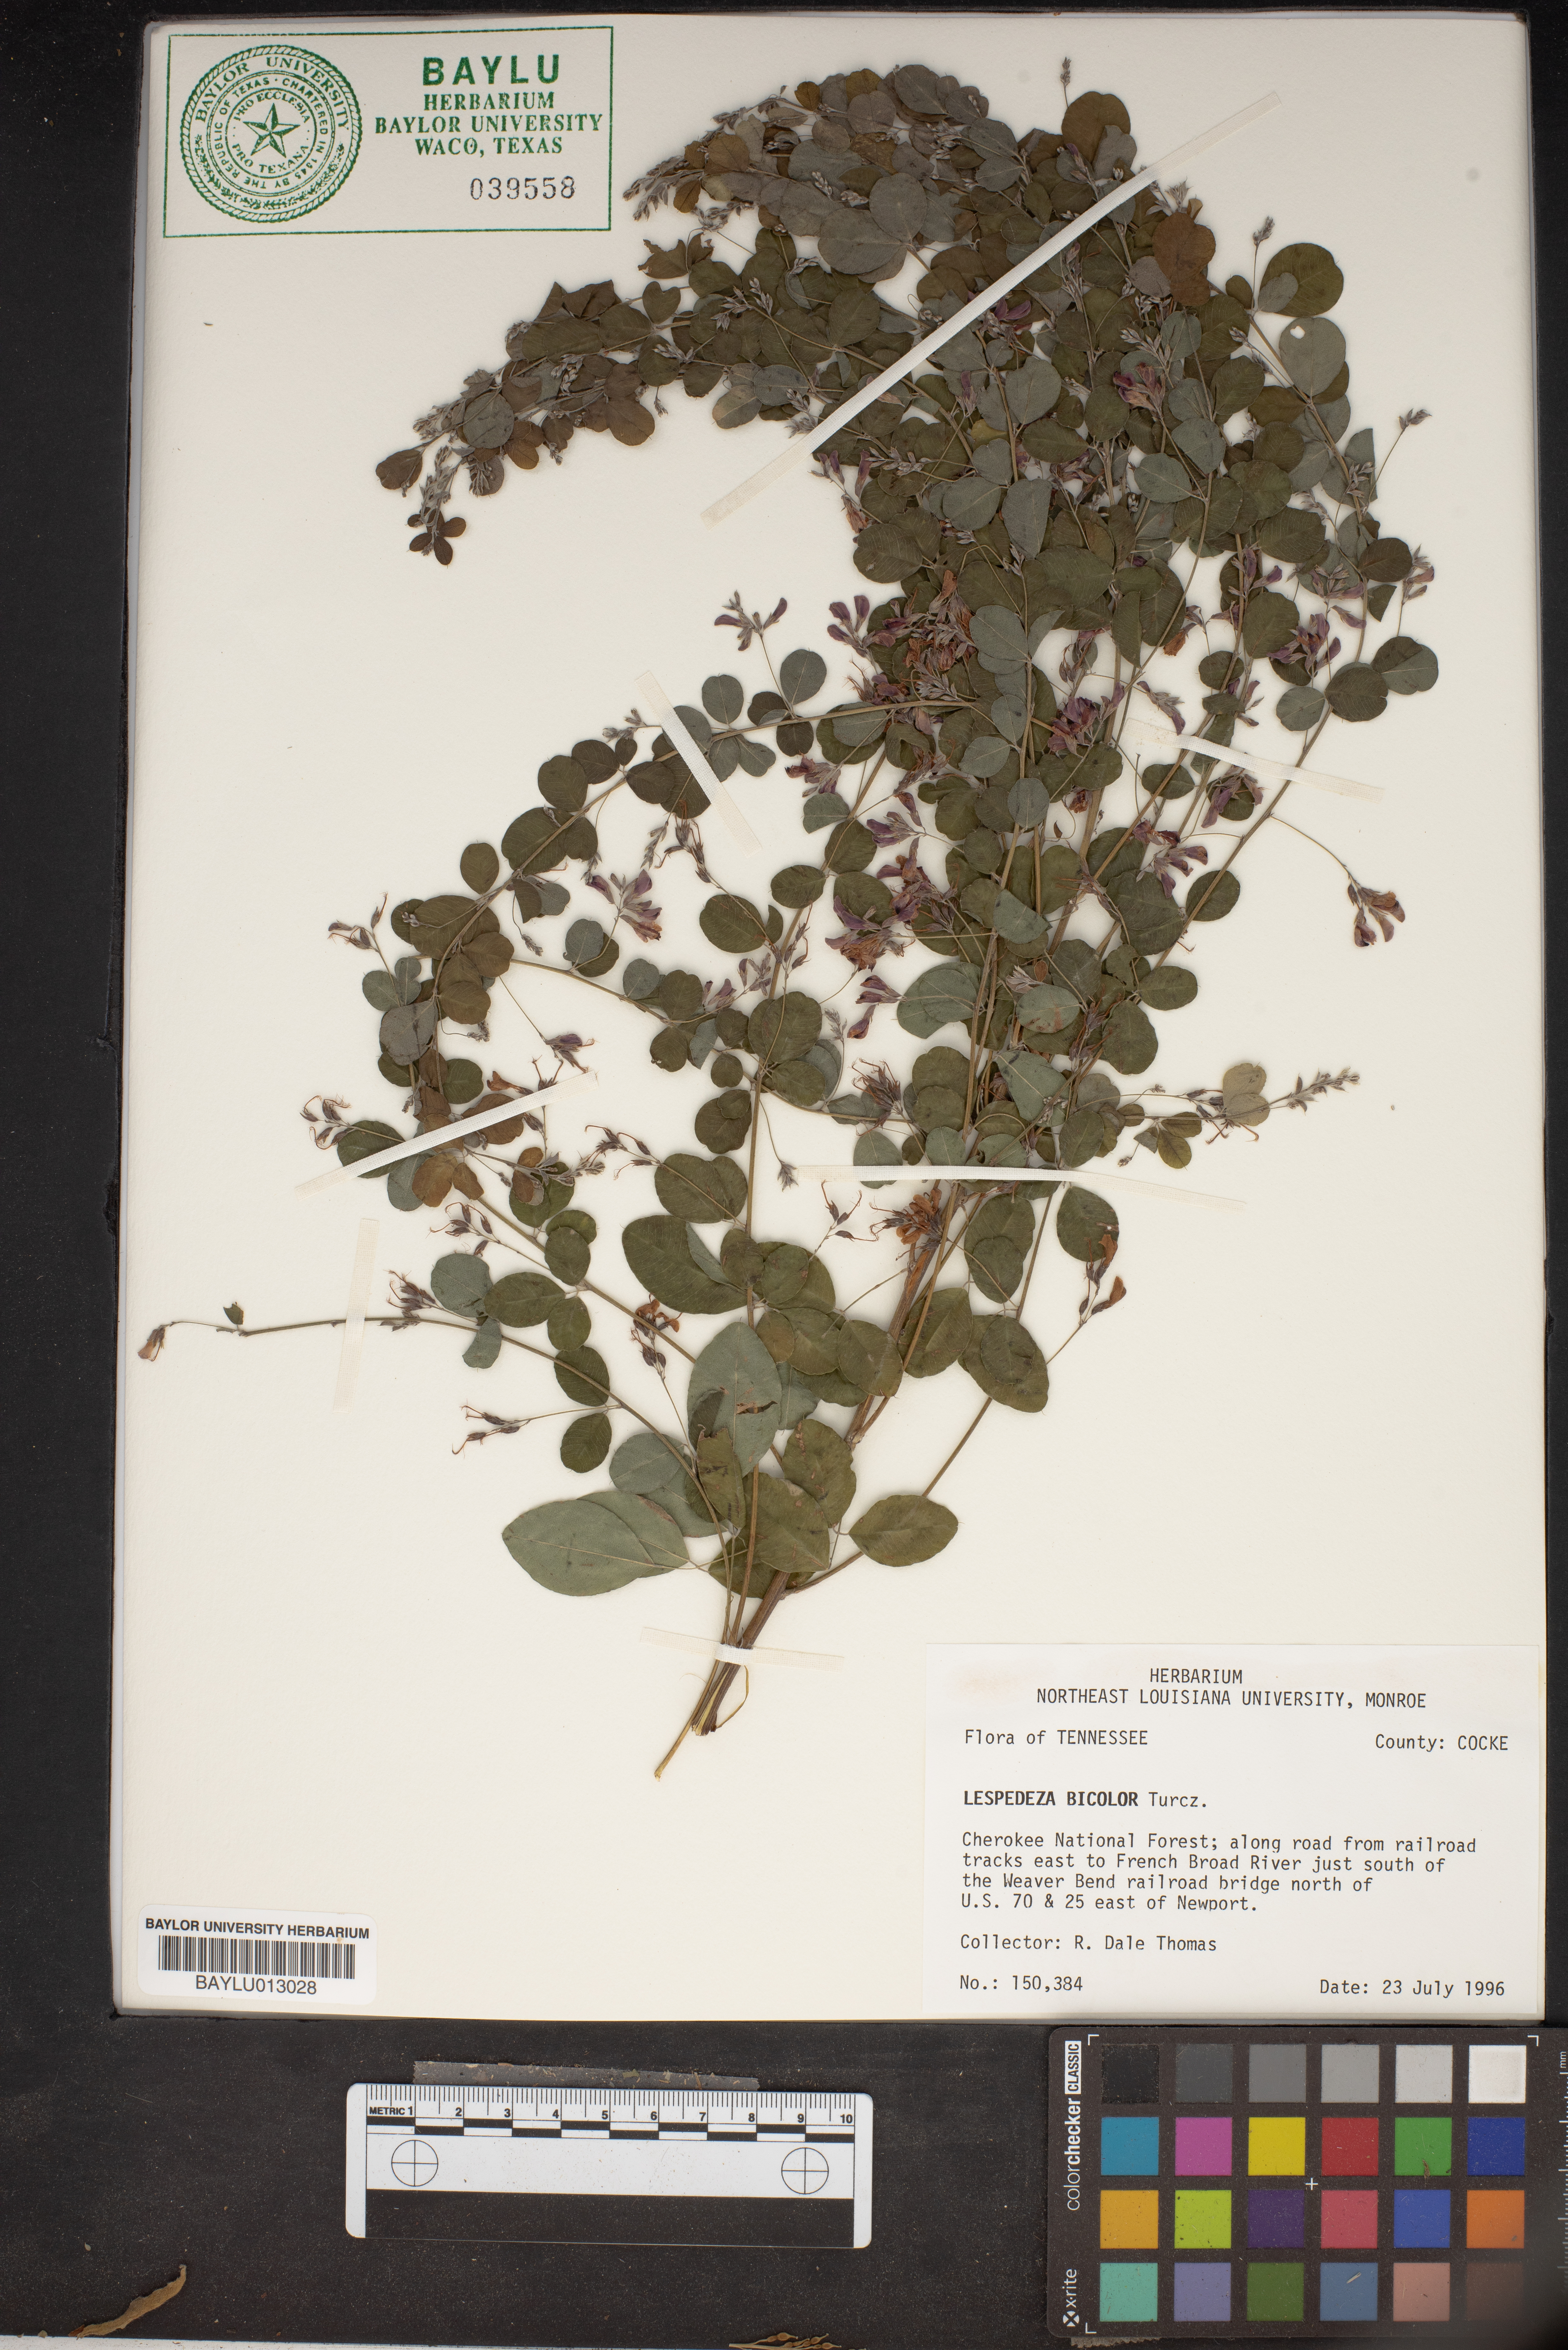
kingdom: Plantae
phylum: Tracheophyta
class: Magnoliopsida
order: Fabales
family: Fabaceae
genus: Lespedeza
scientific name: Lespedeza bicolor
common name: Shrub lespedeza
